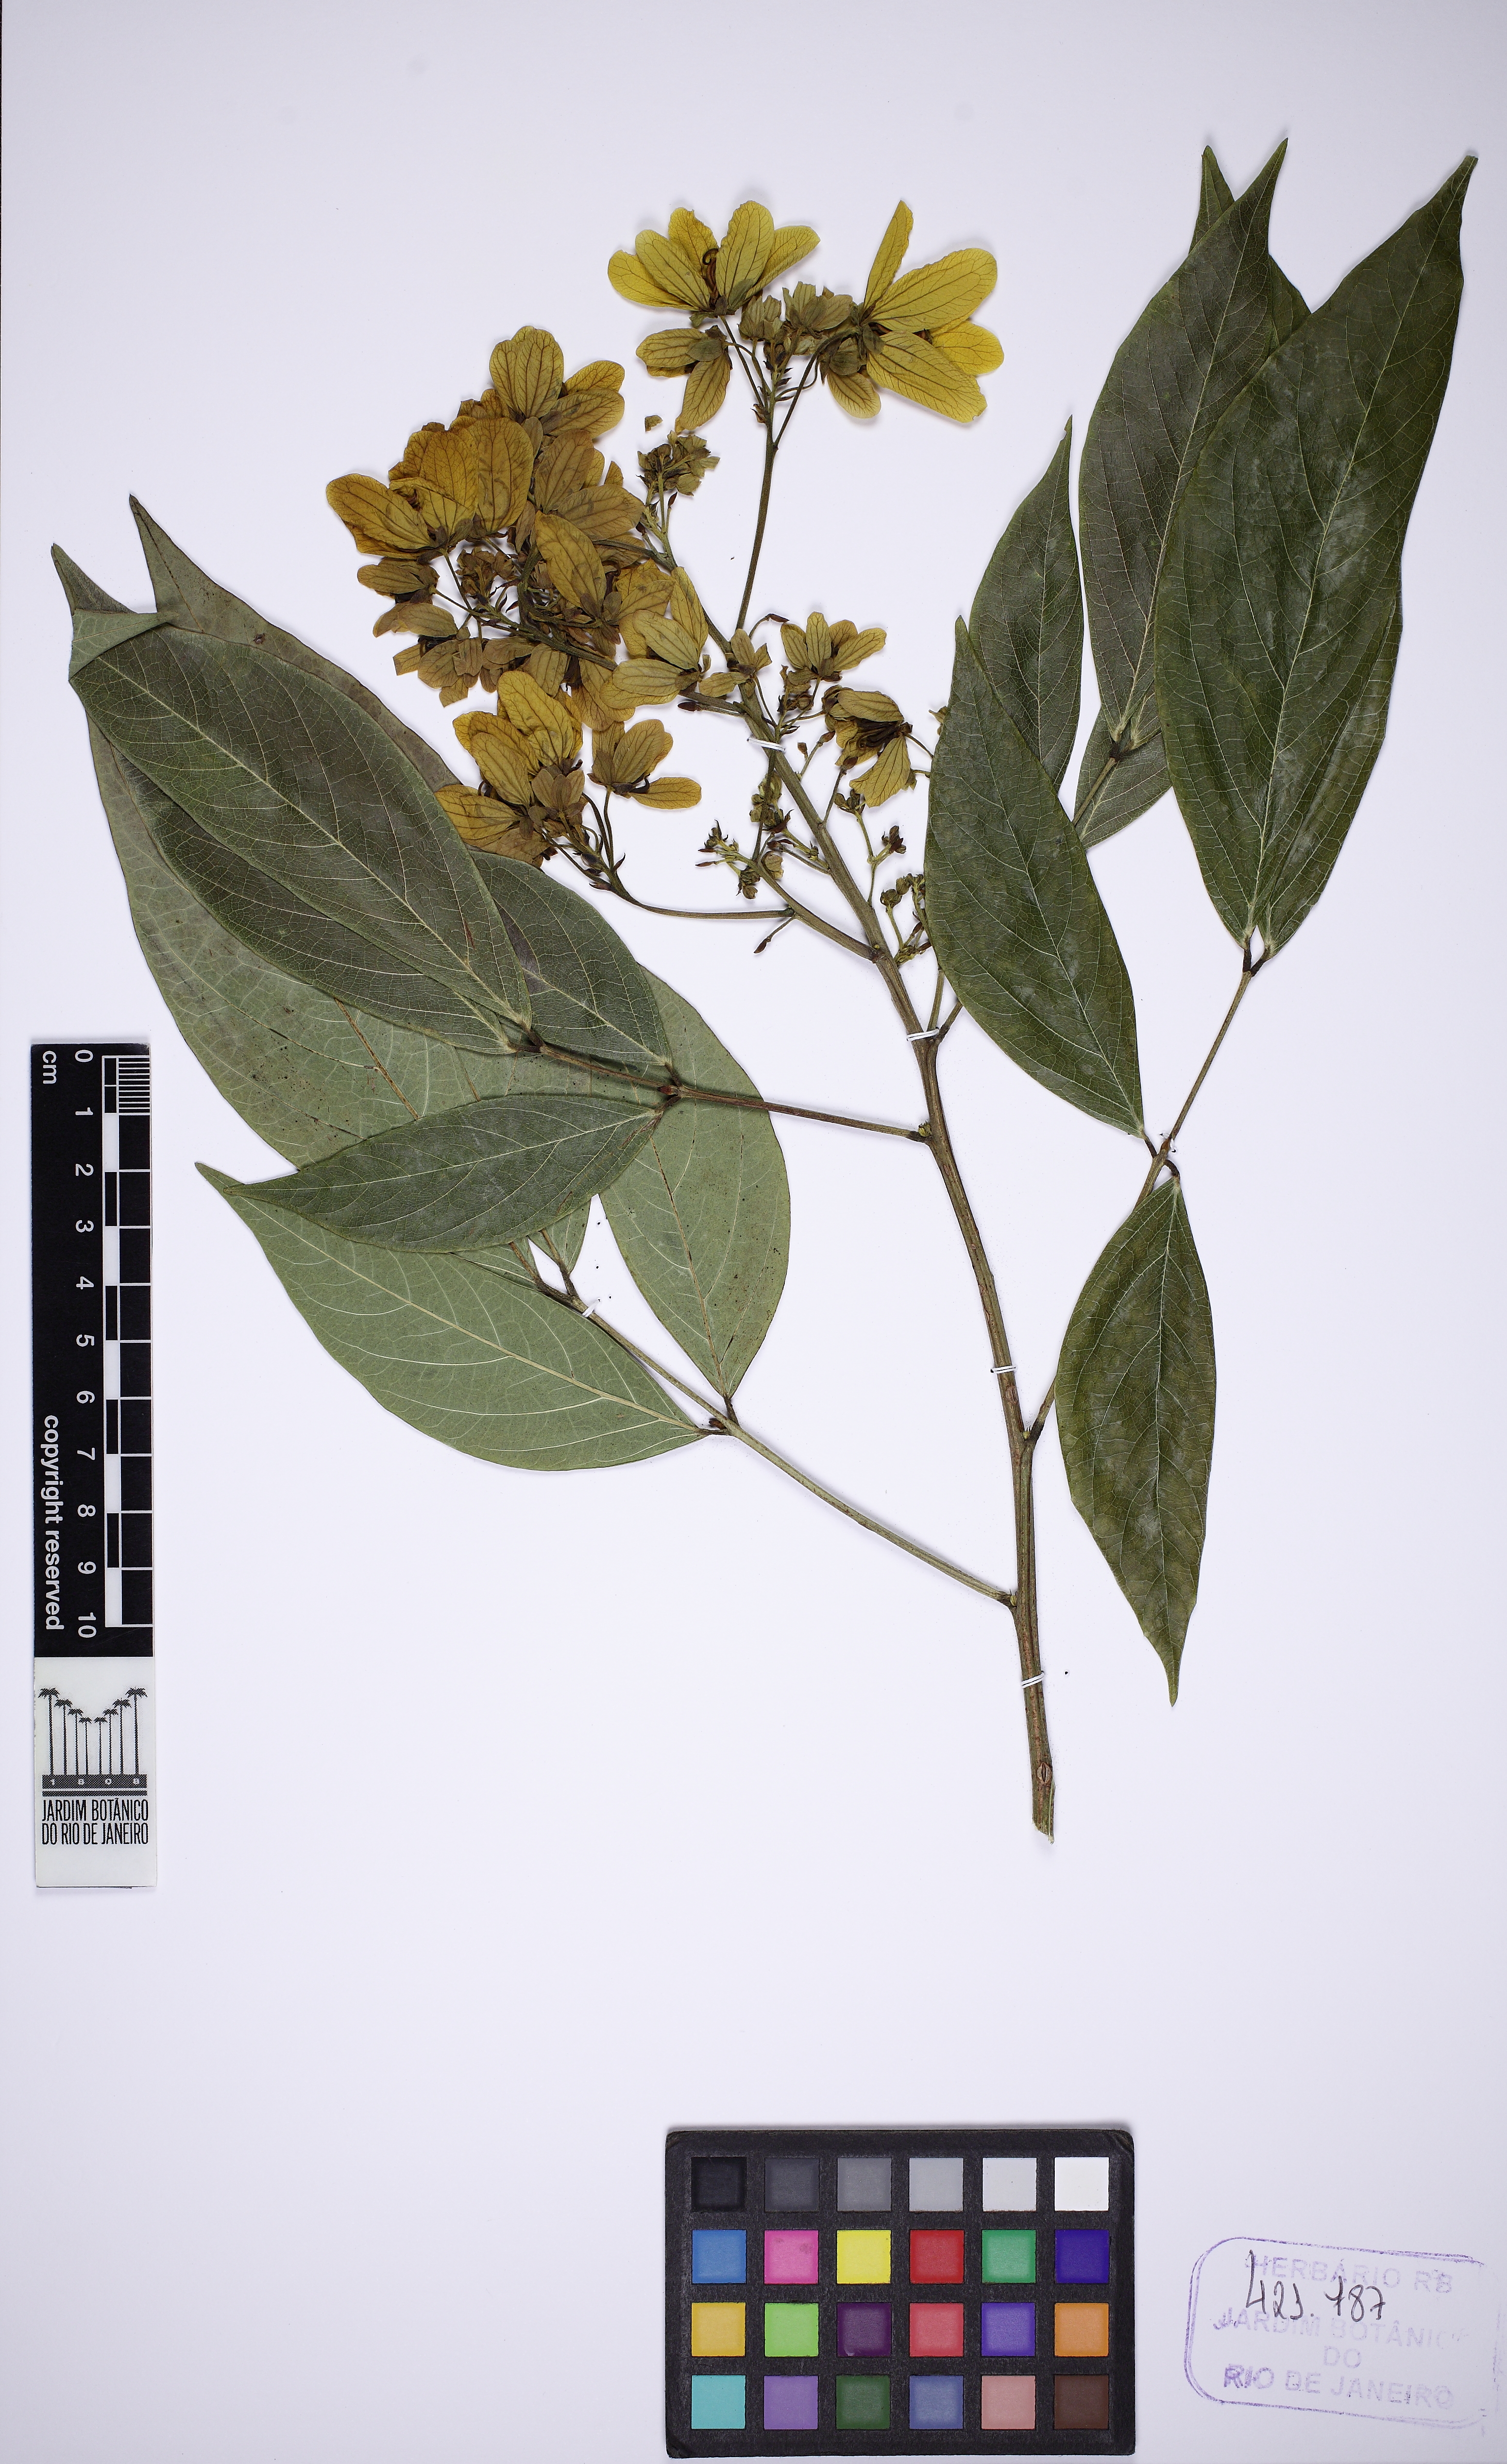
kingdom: Plantae
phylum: Tracheophyta
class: Magnoliopsida
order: Fabales
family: Fabaceae
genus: Senna
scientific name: Senna macranthera
